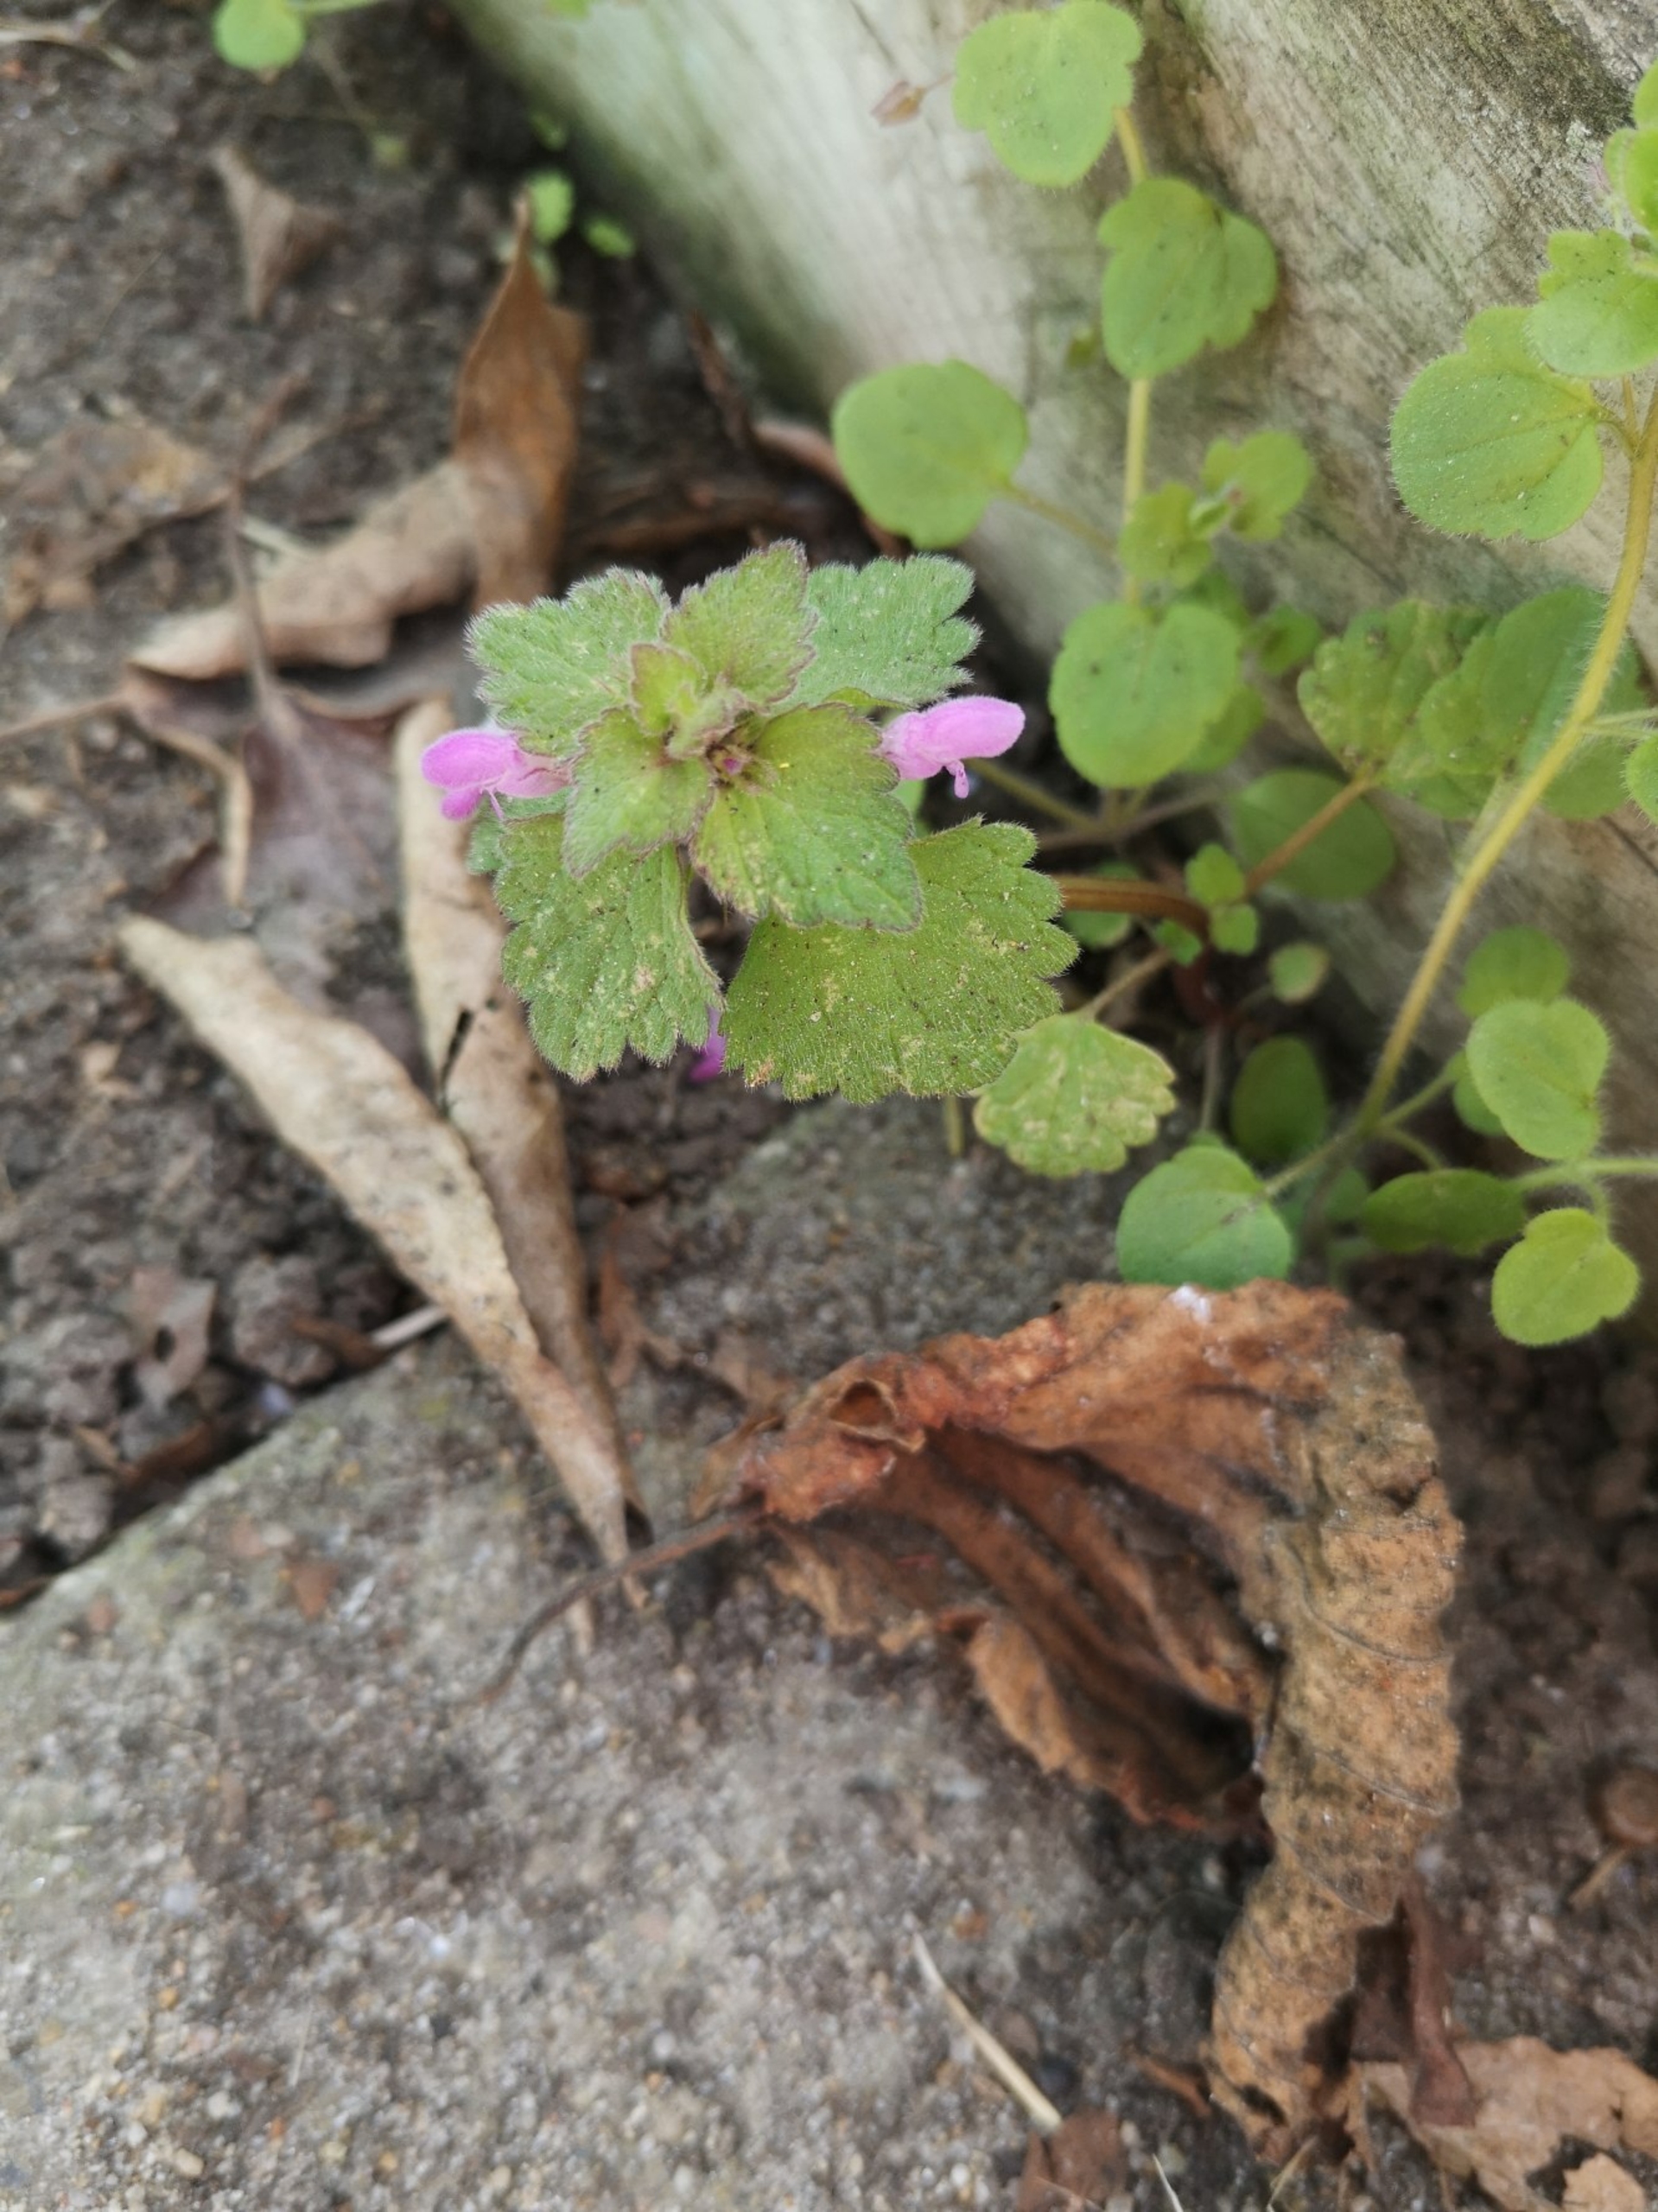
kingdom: Plantae
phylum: Tracheophyta
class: Magnoliopsida
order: Lamiales
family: Lamiaceae
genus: Lamium
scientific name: Lamium purpureum
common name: Rød tvetand
